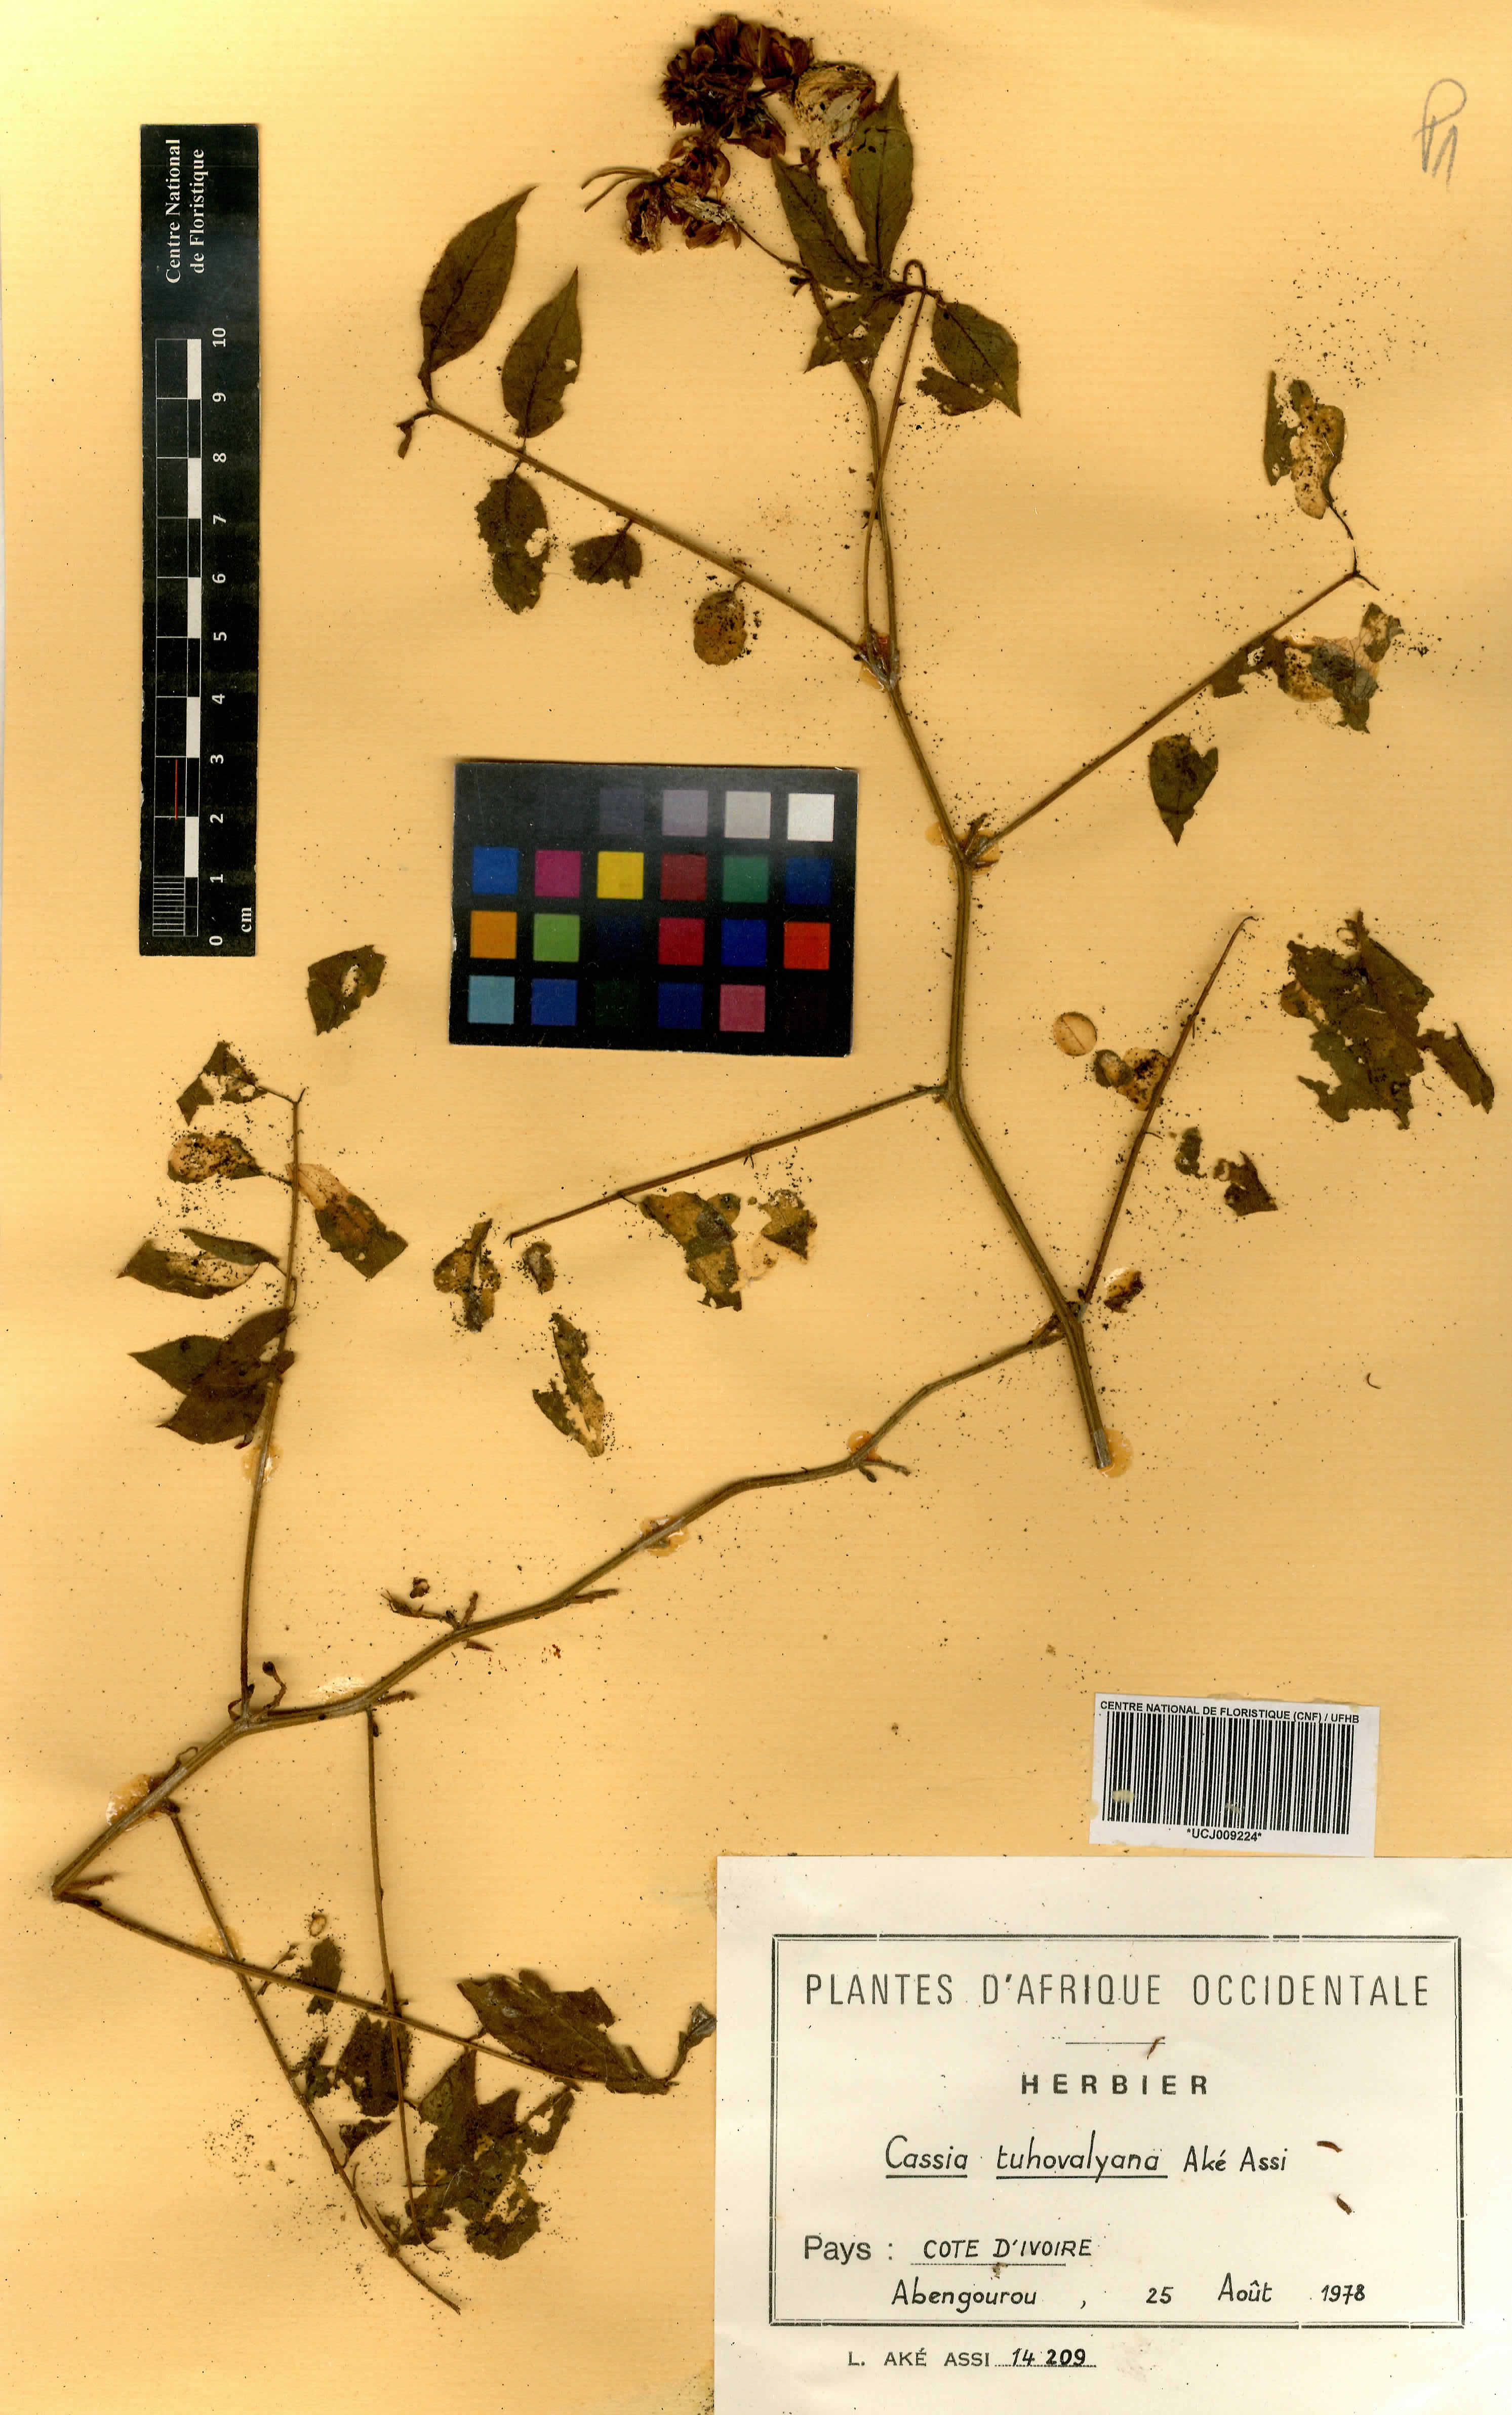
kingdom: Plantae
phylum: Tracheophyta
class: Magnoliopsida
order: Fabales
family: Fabaceae
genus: Senna
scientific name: Senna tuhovalyana
